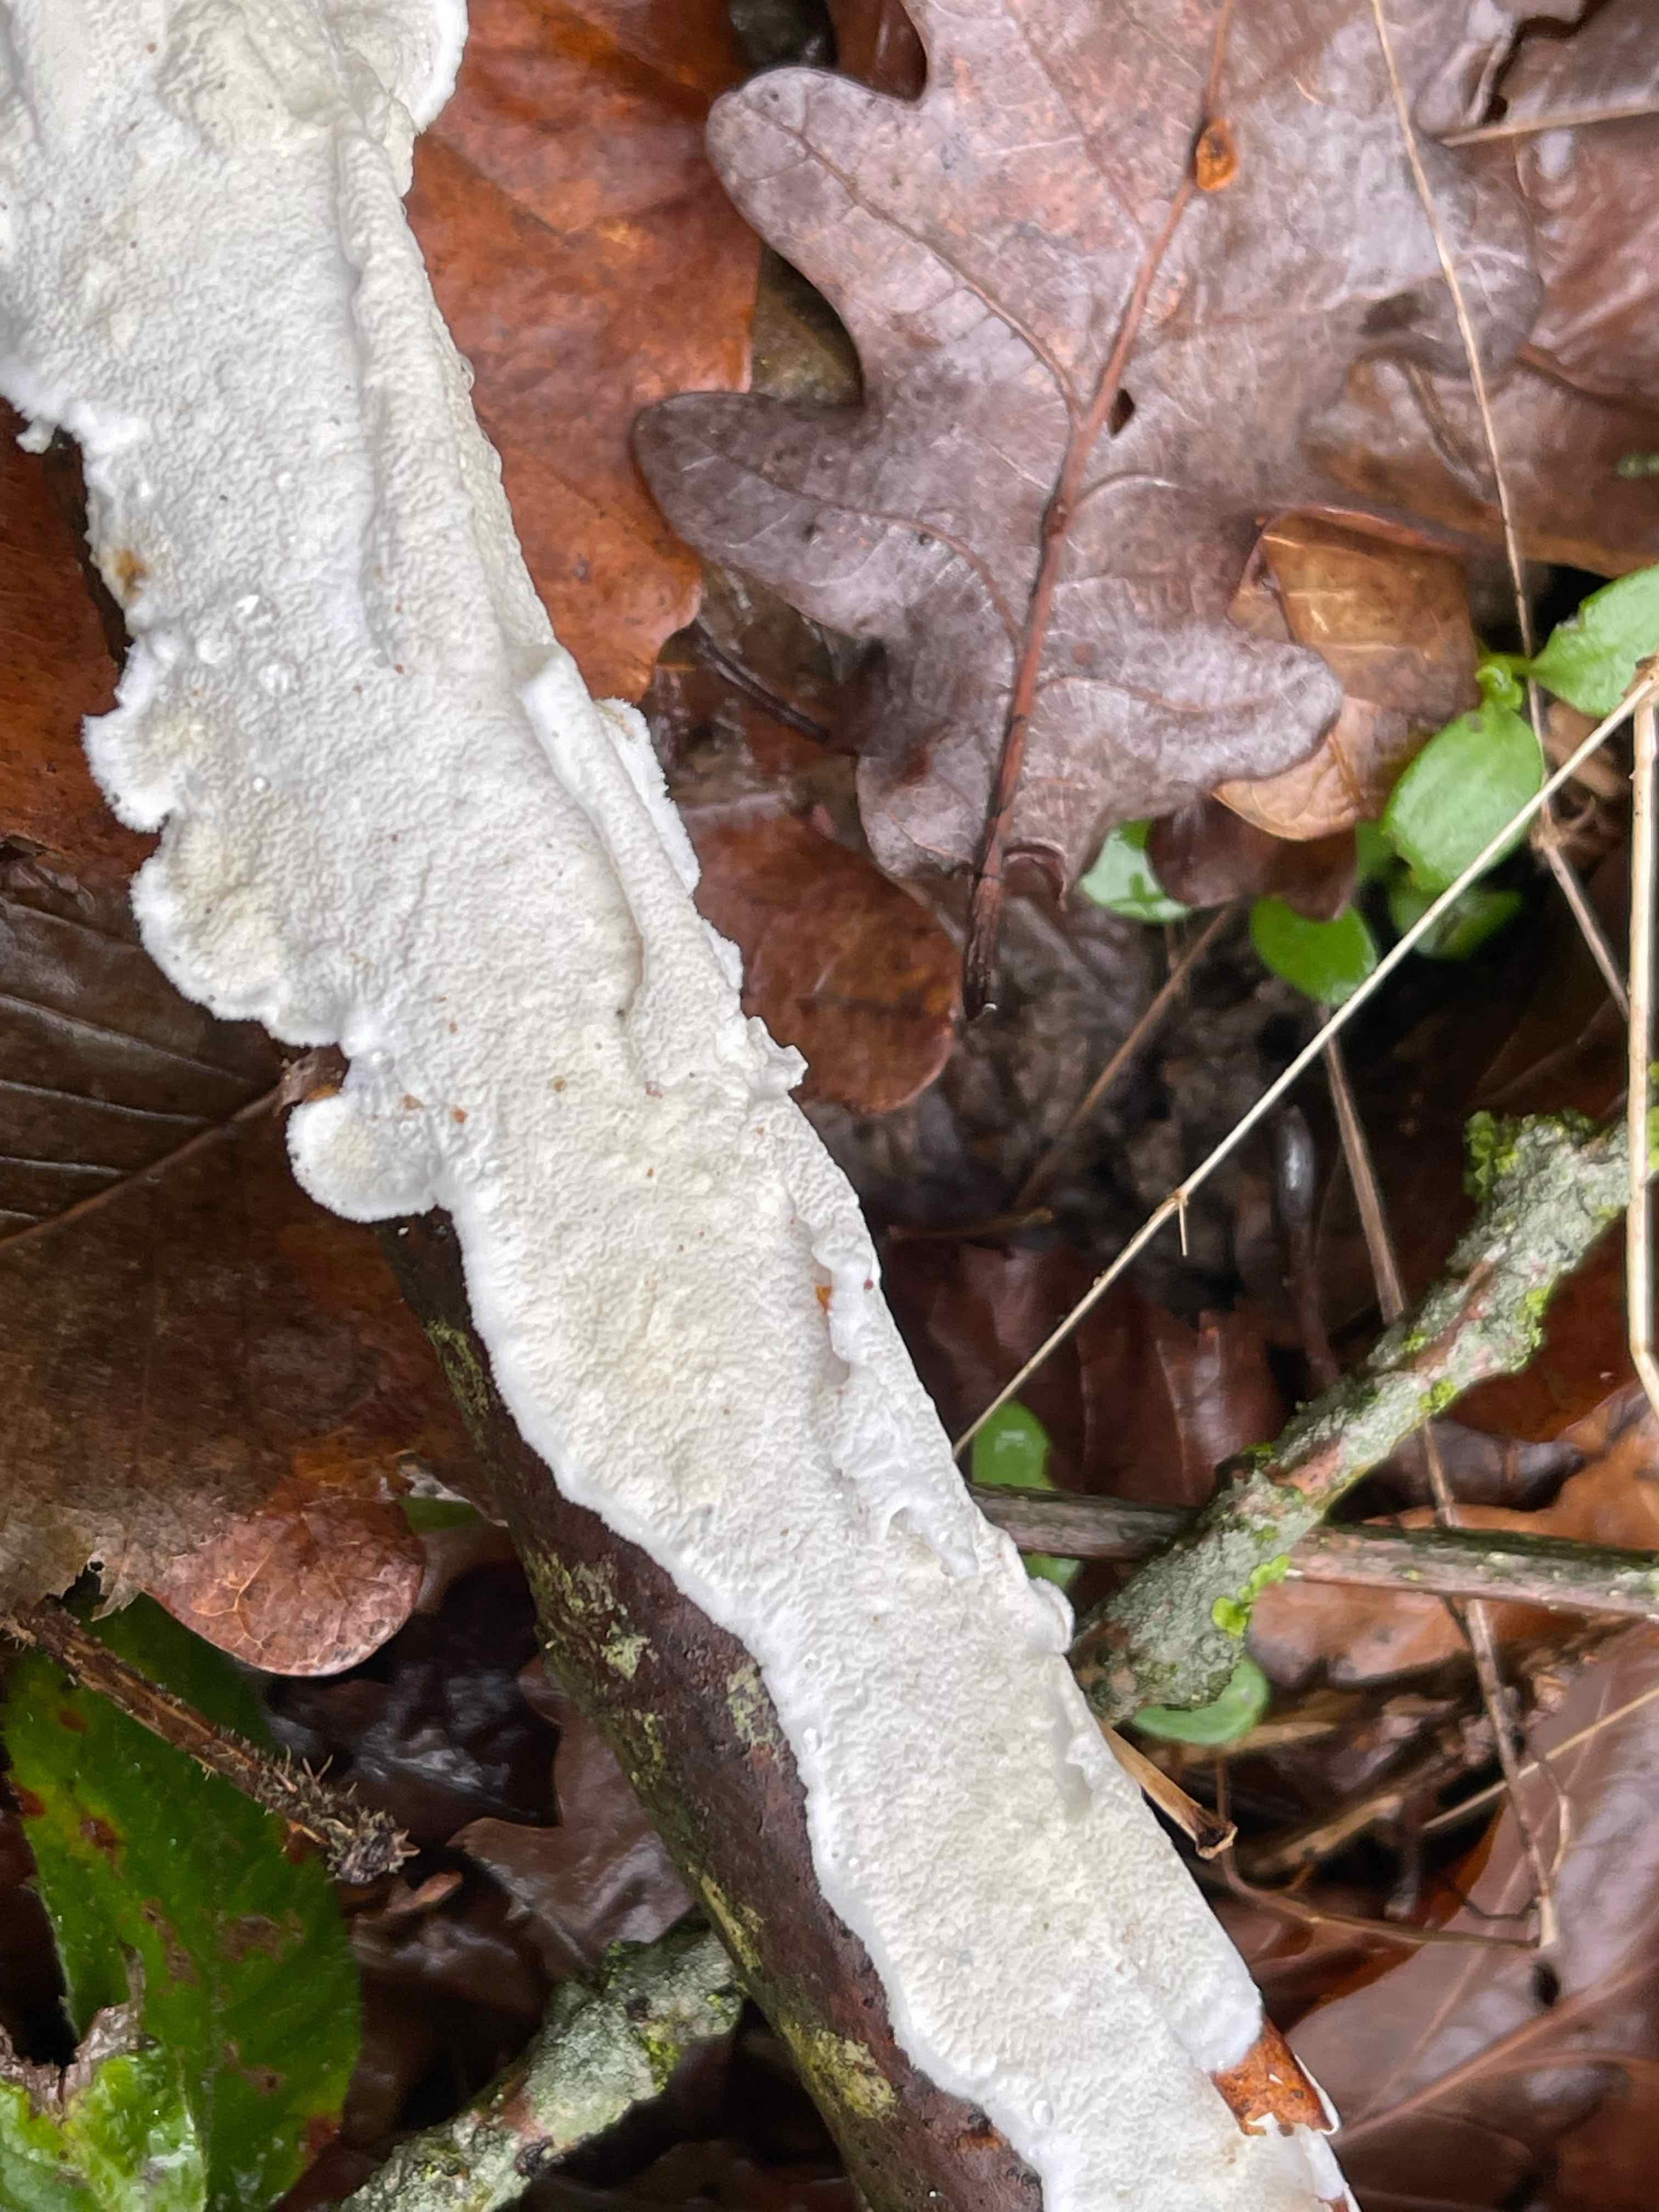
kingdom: Fungi
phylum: Basidiomycota
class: Agaricomycetes
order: Polyporales
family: Irpicaceae
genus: Byssomerulius
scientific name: Byssomerulius corium
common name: læder-åresvamp
